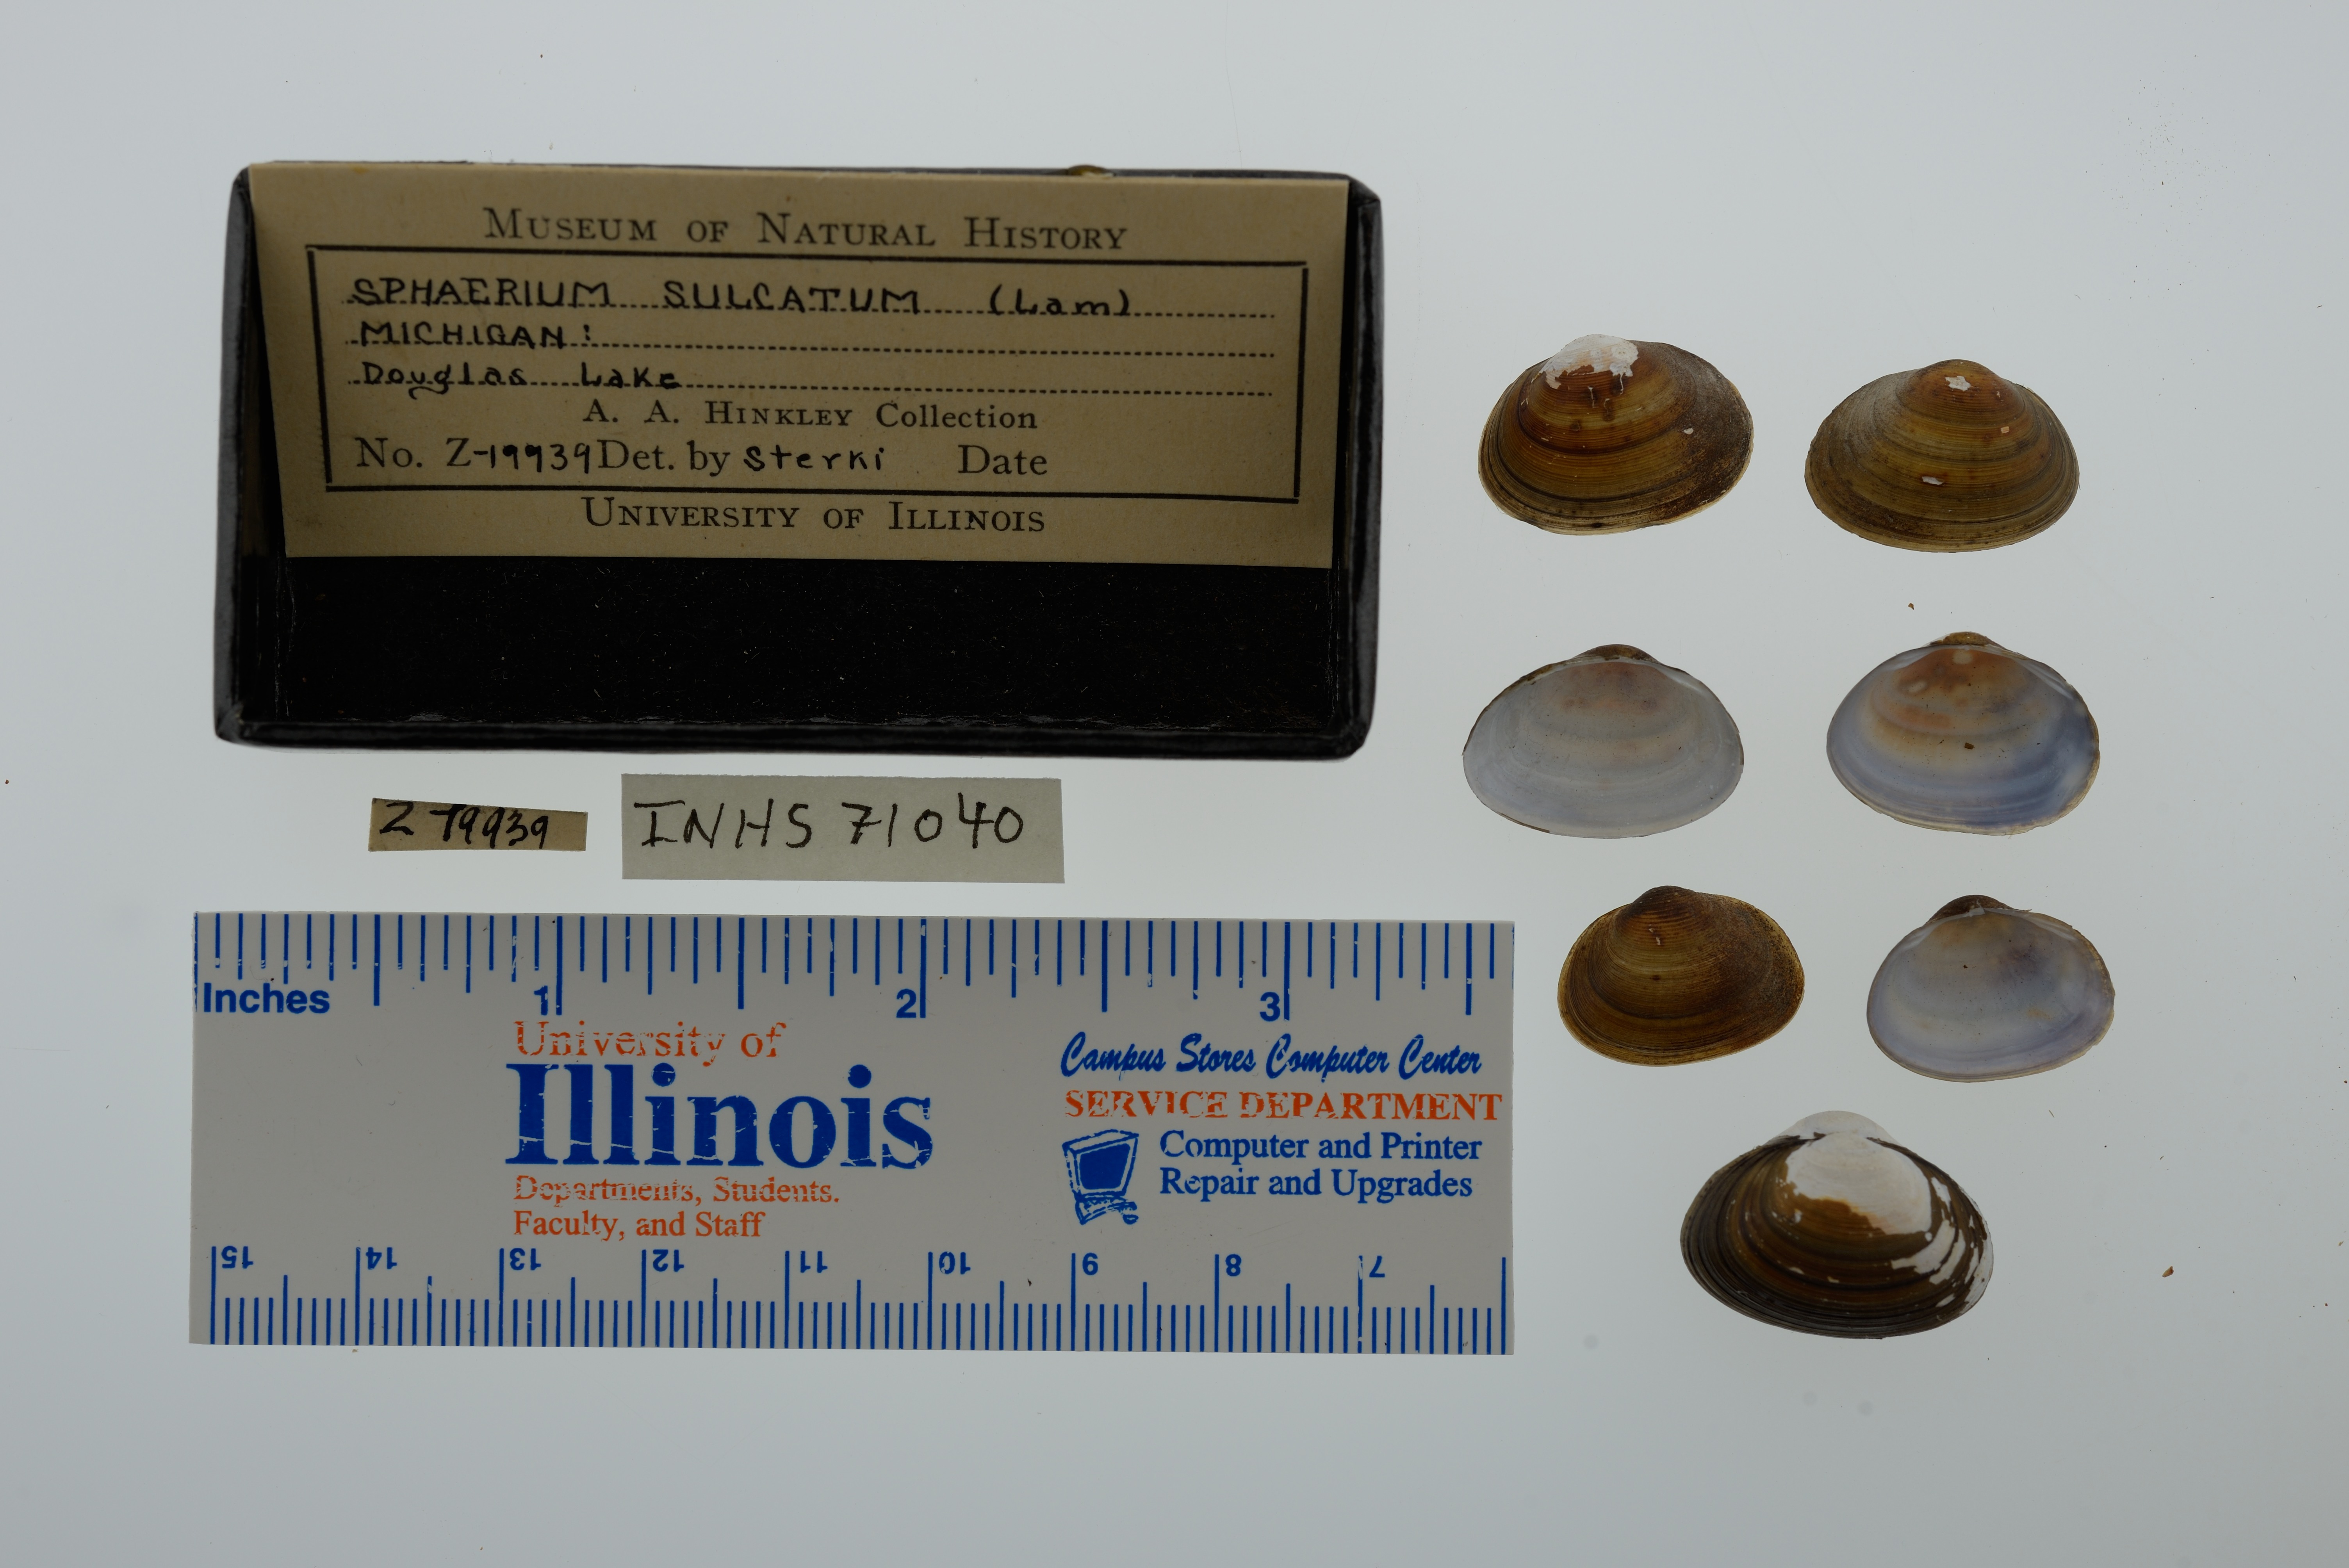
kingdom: Animalia
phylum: Mollusca
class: Bivalvia
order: Sphaeriida
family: Sphaeriidae
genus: Sphaerium
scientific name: Sphaerium simile
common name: Grooved fingernailclam
